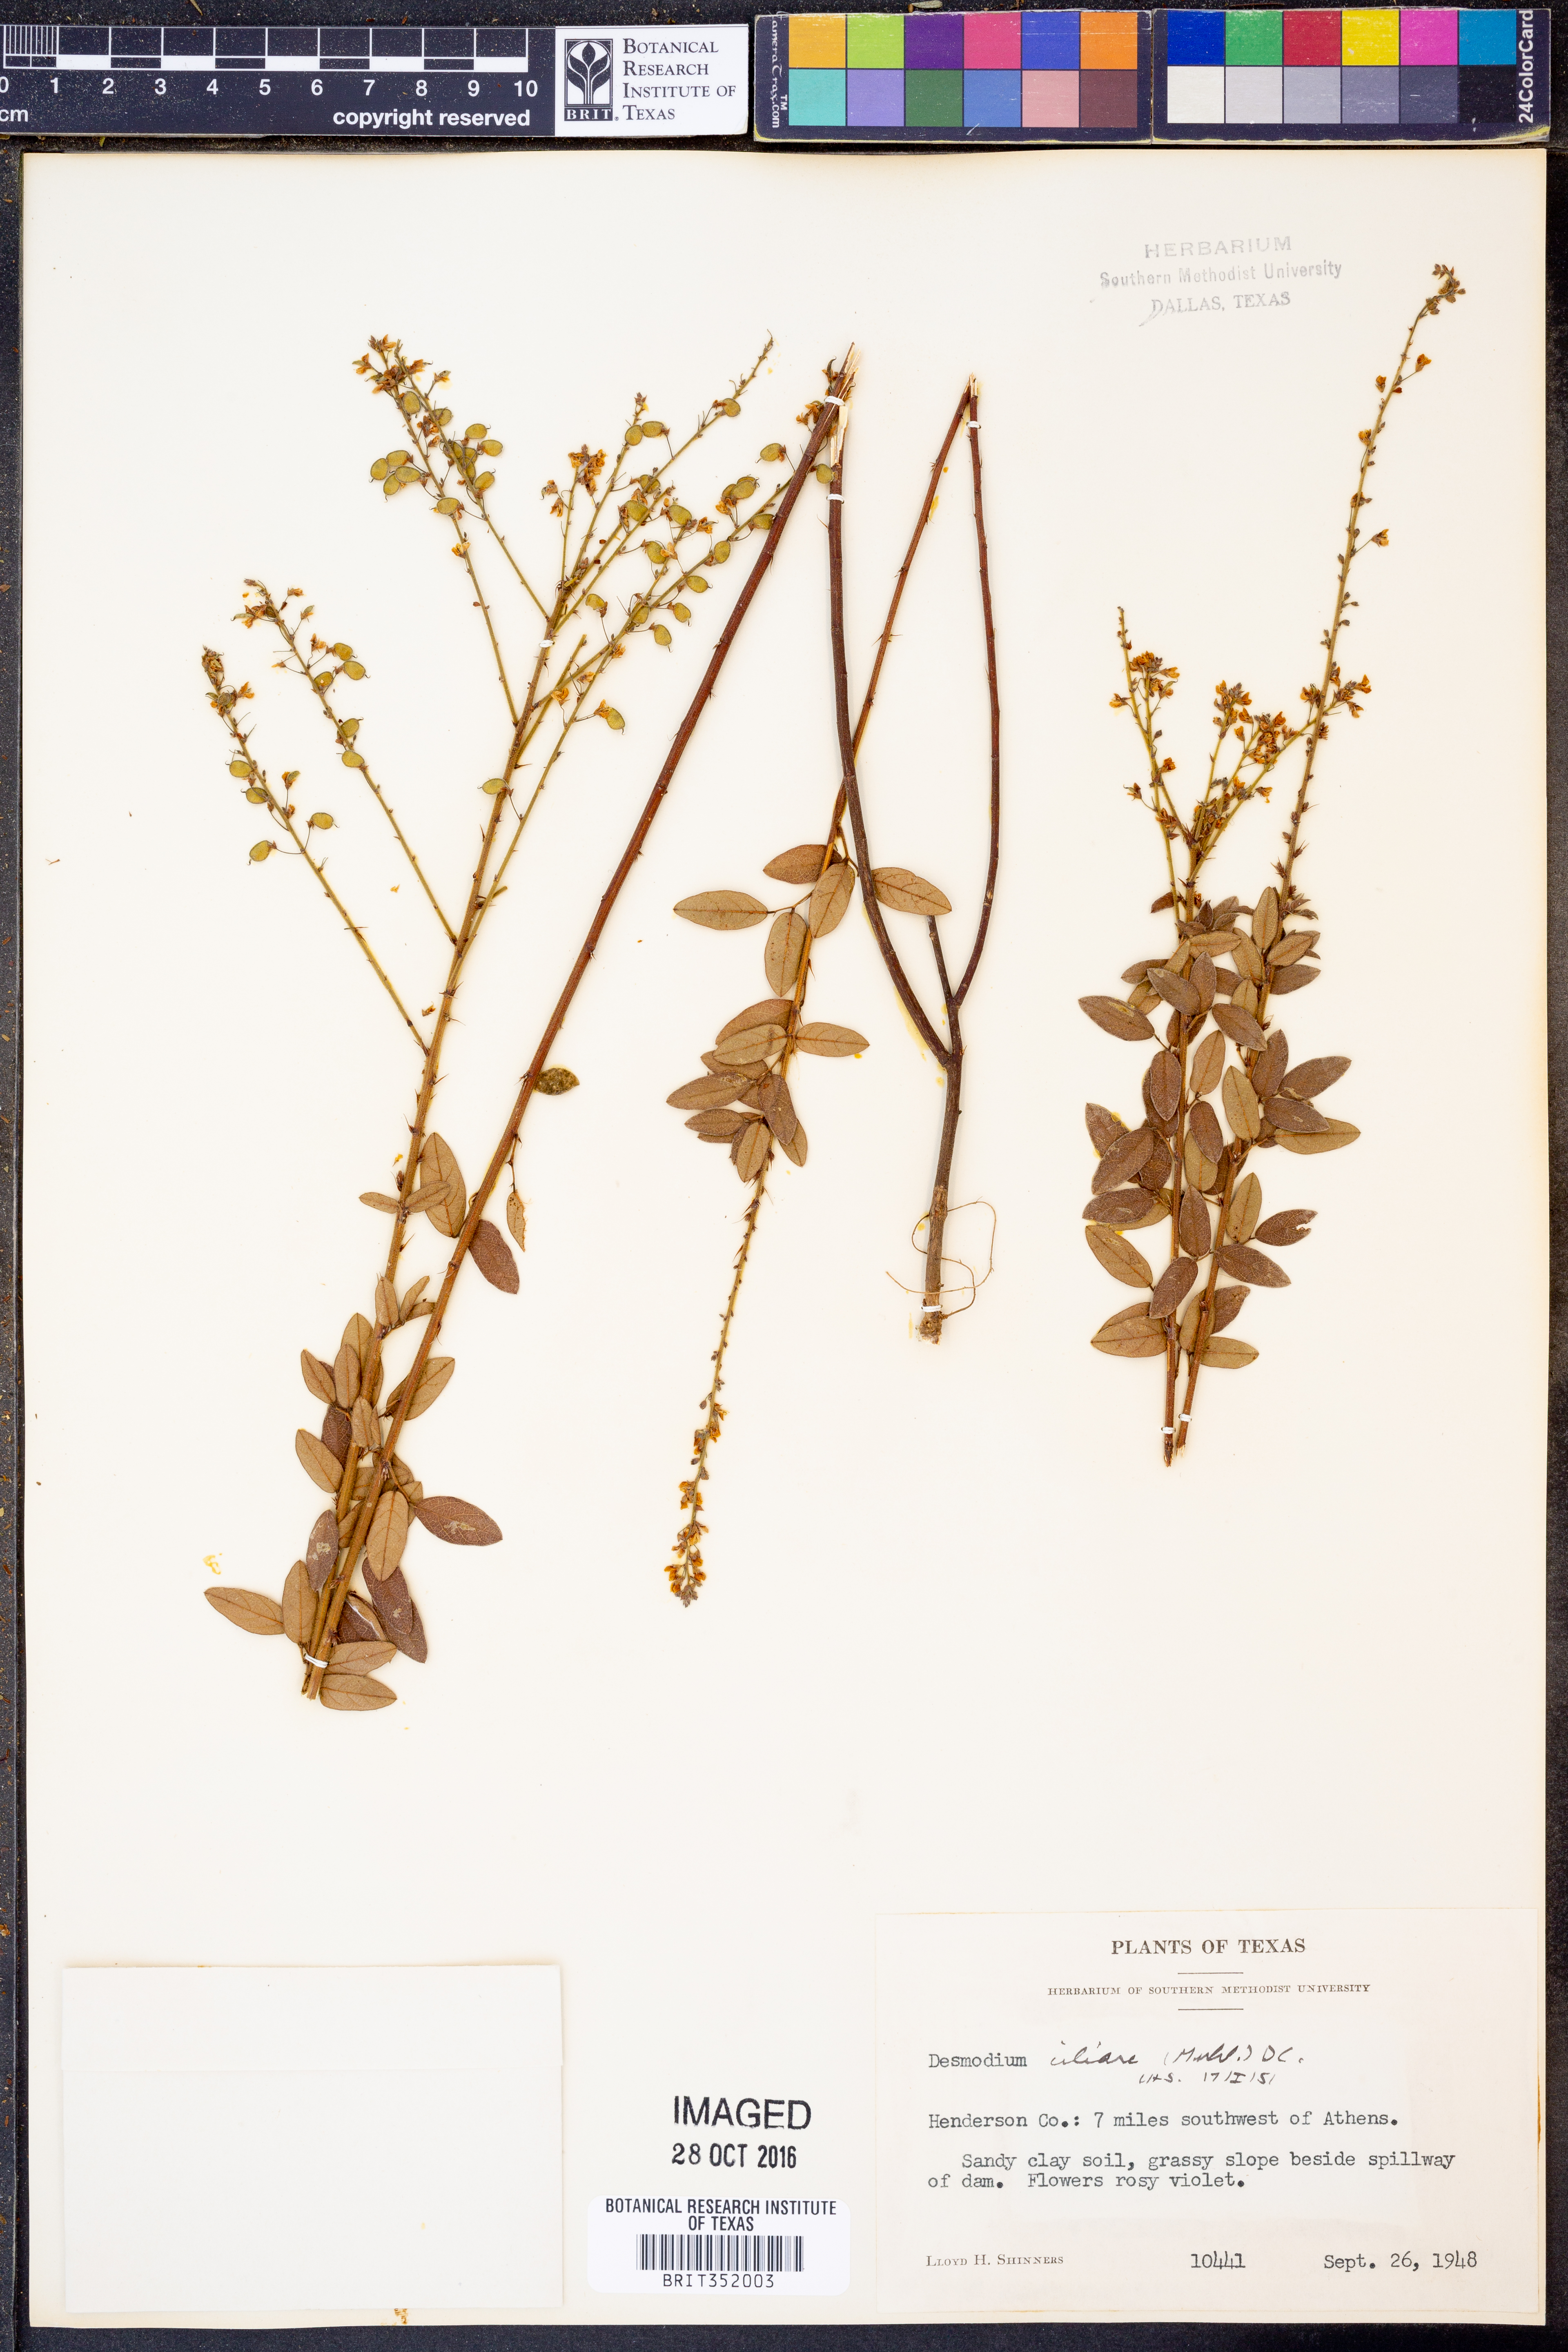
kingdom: Plantae
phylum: Tracheophyta
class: Magnoliopsida
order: Fabales
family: Fabaceae
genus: Desmodium
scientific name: Desmodium ciliare
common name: Hairy small-leaf ticktrefoil
